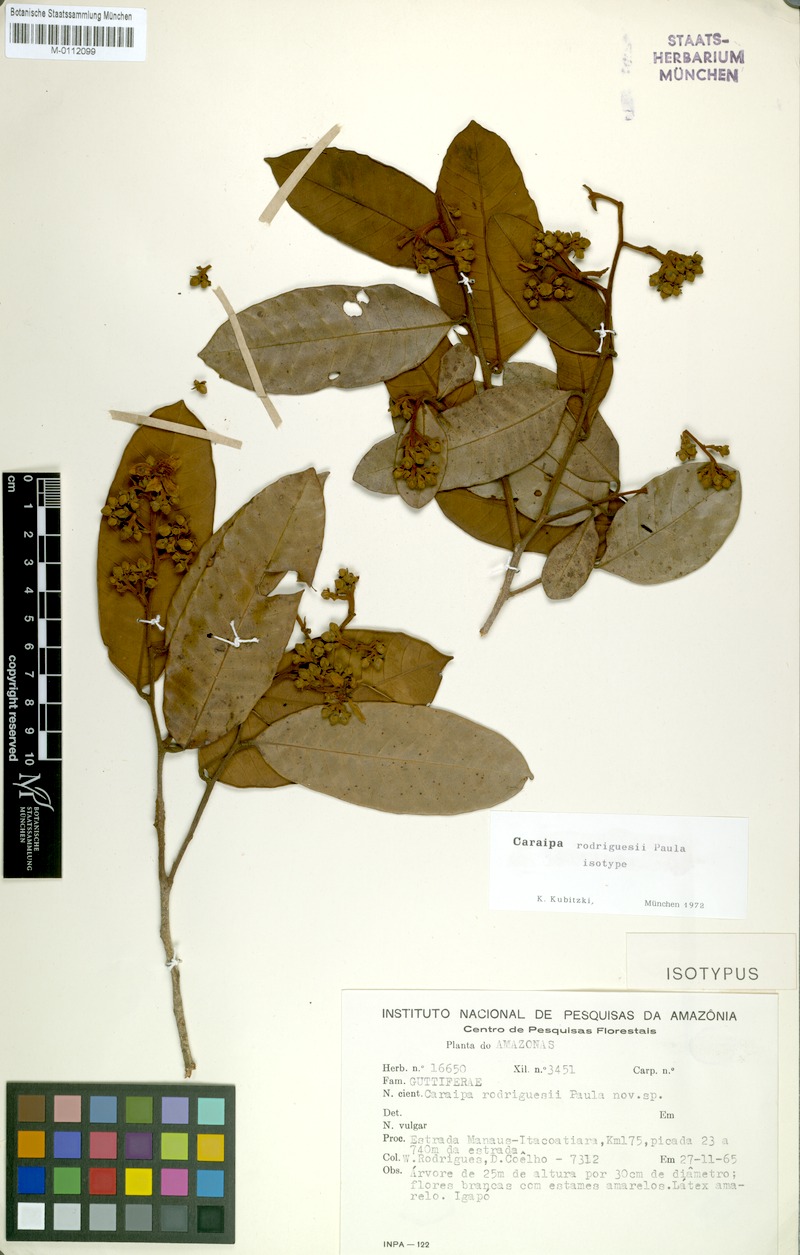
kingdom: Plantae
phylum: Tracheophyta
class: Magnoliopsida
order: Malpighiales
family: Calophyllaceae
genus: Caraipa
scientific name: Caraipa rodriguesii
